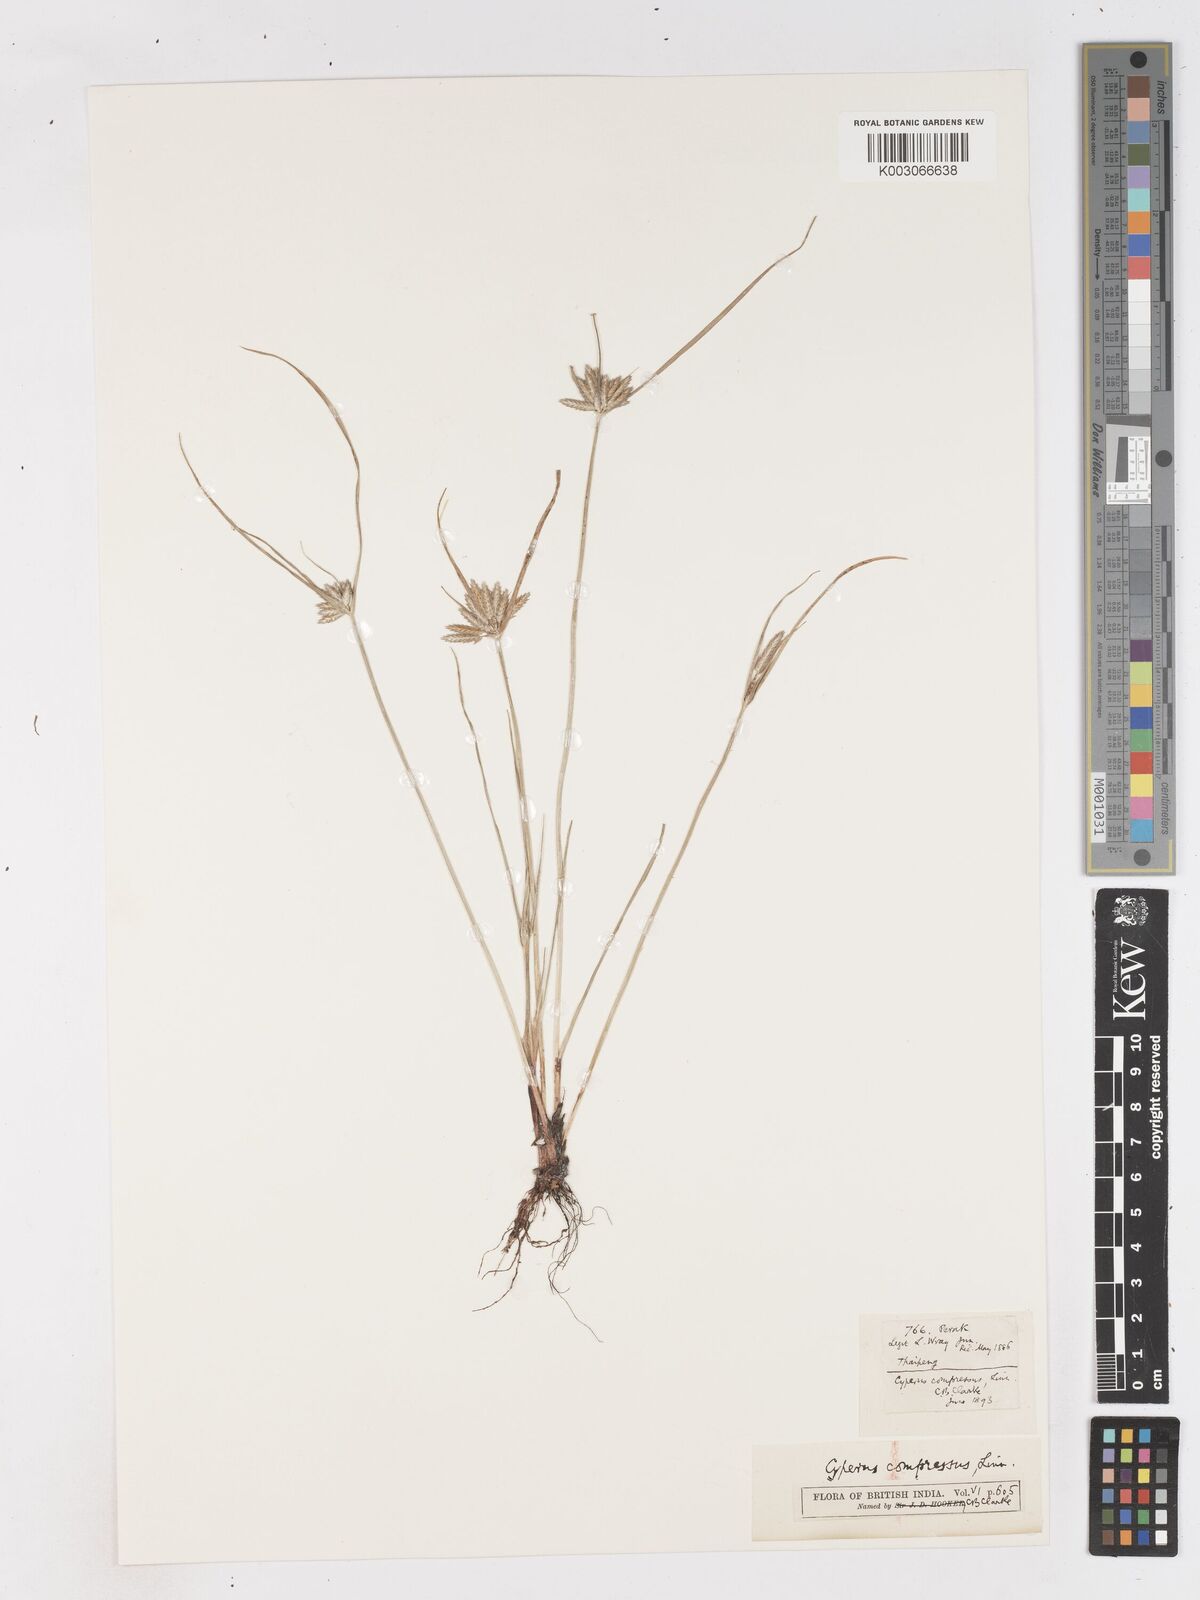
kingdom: Plantae
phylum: Tracheophyta
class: Liliopsida
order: Poales
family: Cyperaceae
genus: Cyperus
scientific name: Cyperus compressus
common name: Poorland flatsedge
